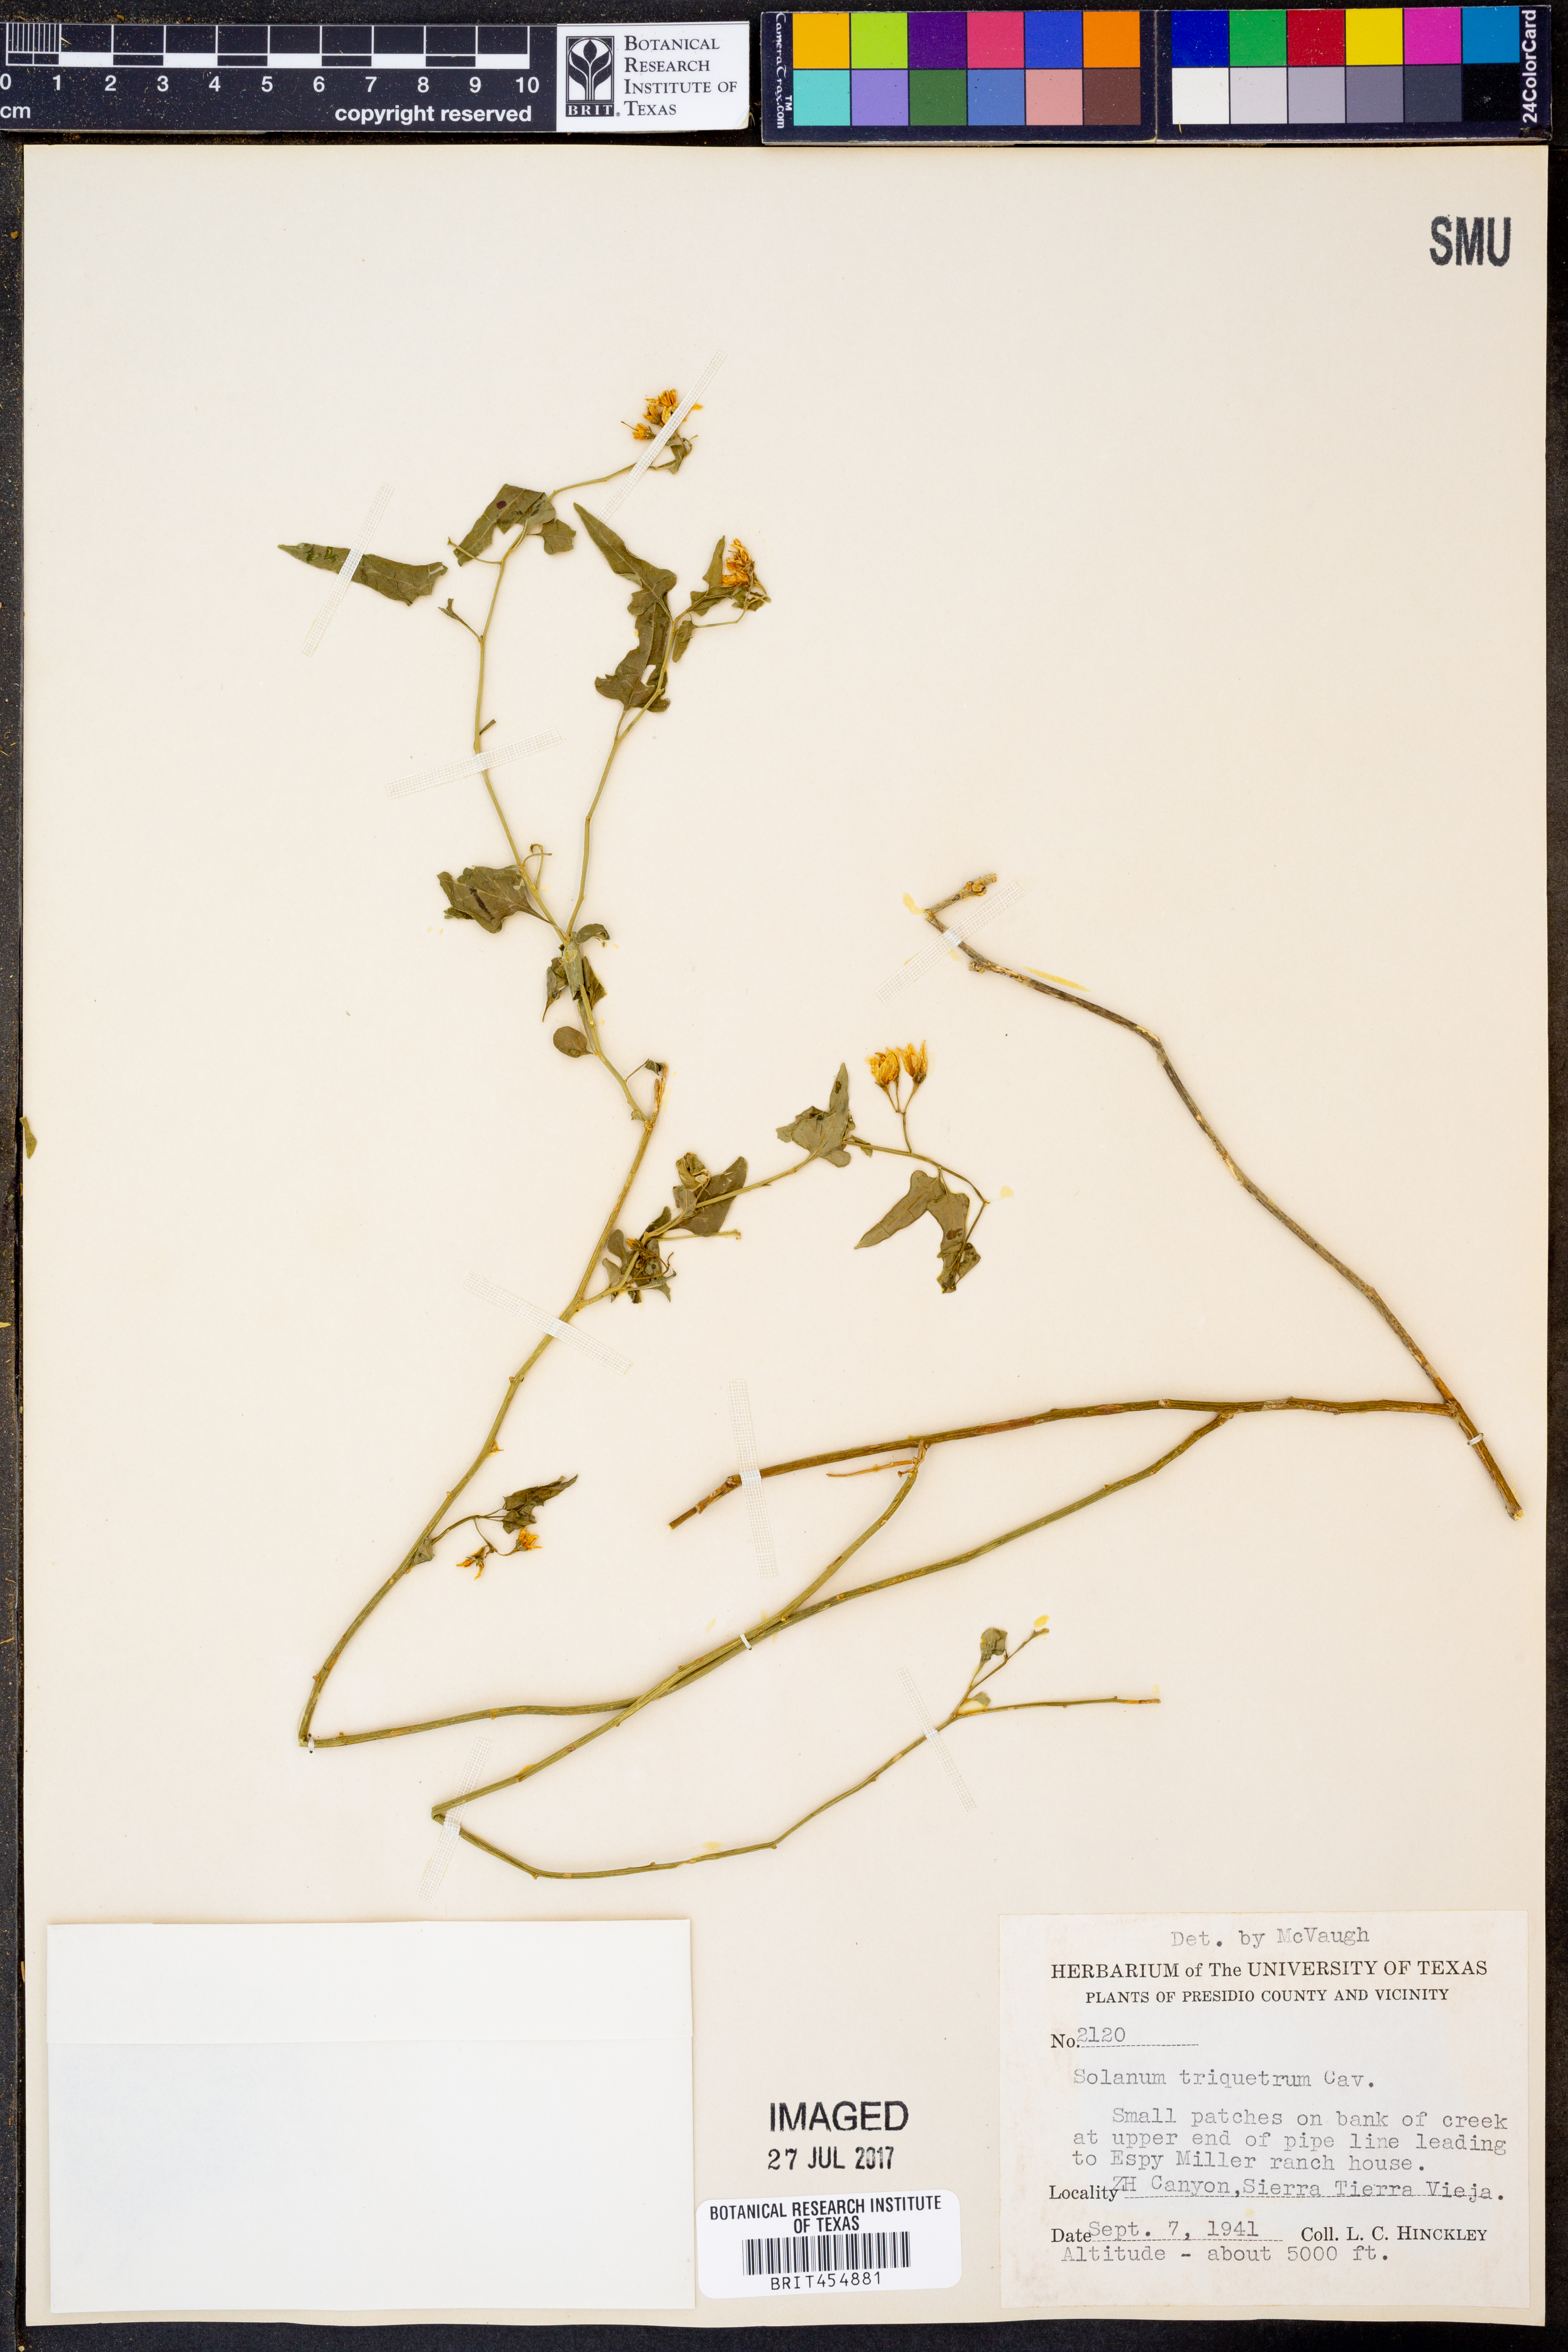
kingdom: Plantae
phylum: Tracheophyta
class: Magnoliopsida
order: Solanales
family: Solanaceae
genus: Solanum
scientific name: Solanum triquetrum
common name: Texas nightshade
